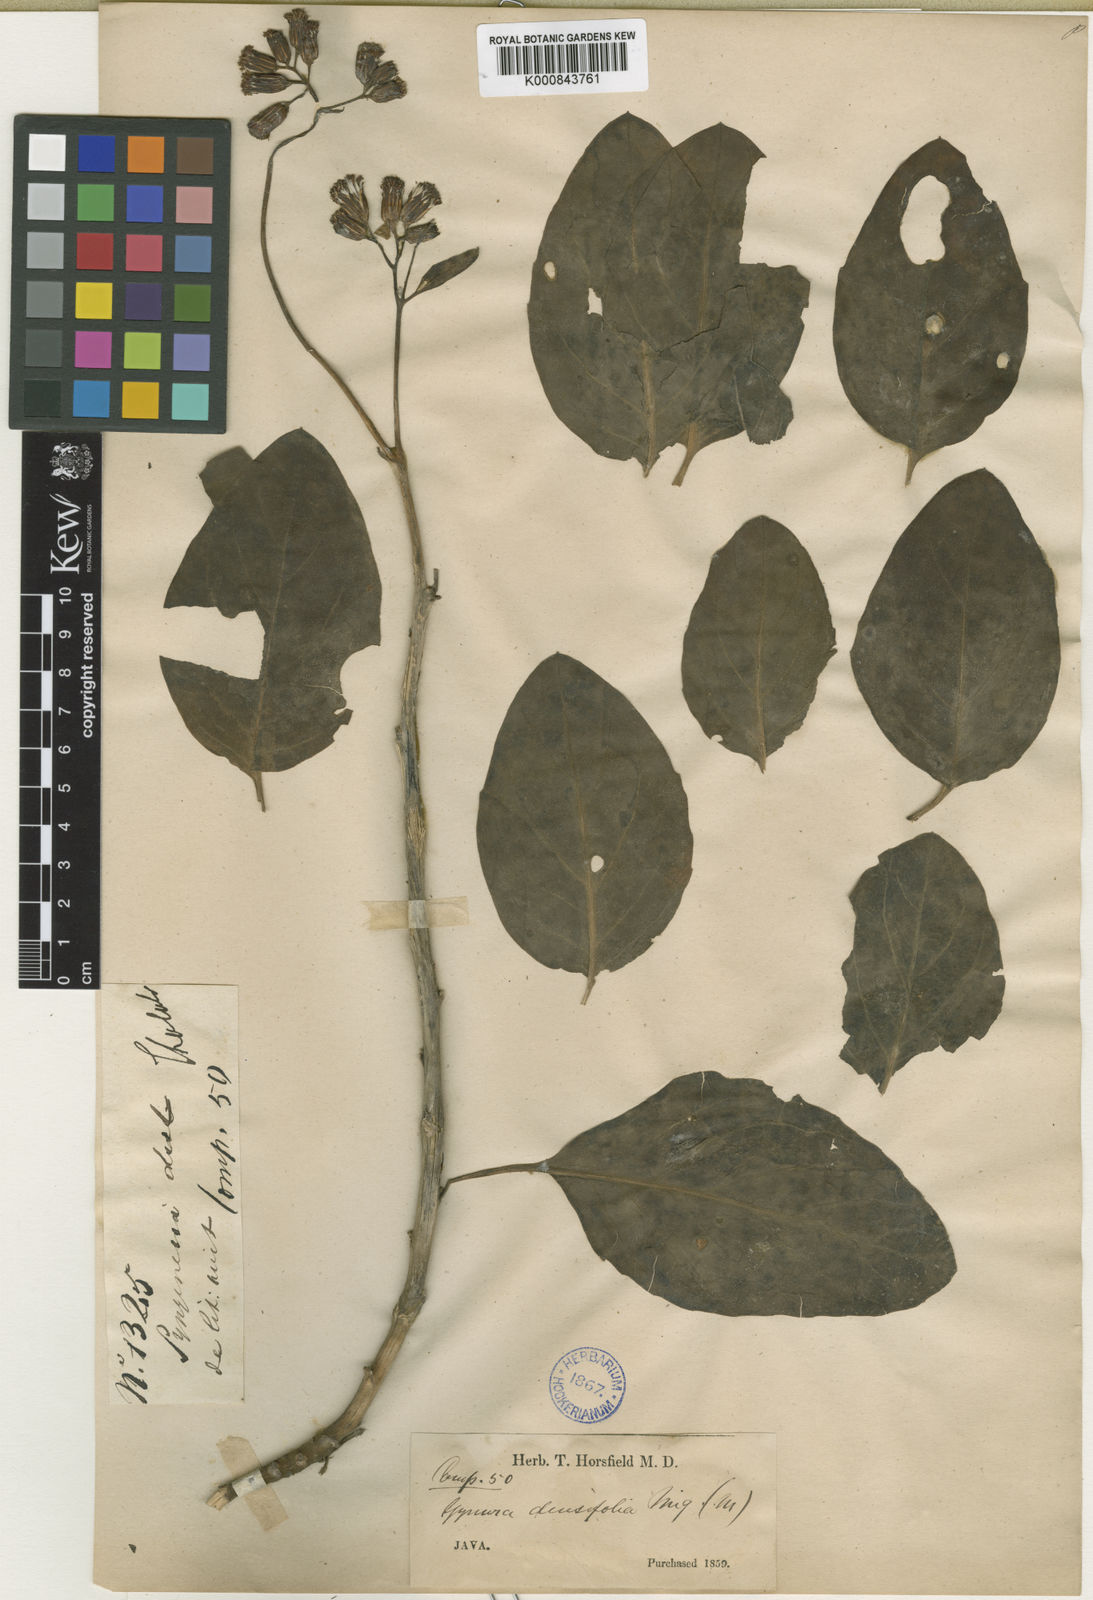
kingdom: Plantae
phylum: Tracheophyta
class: Magnoliopsida
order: Asterales
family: Asteraceae
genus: Gynura
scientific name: Gynura carnosula
